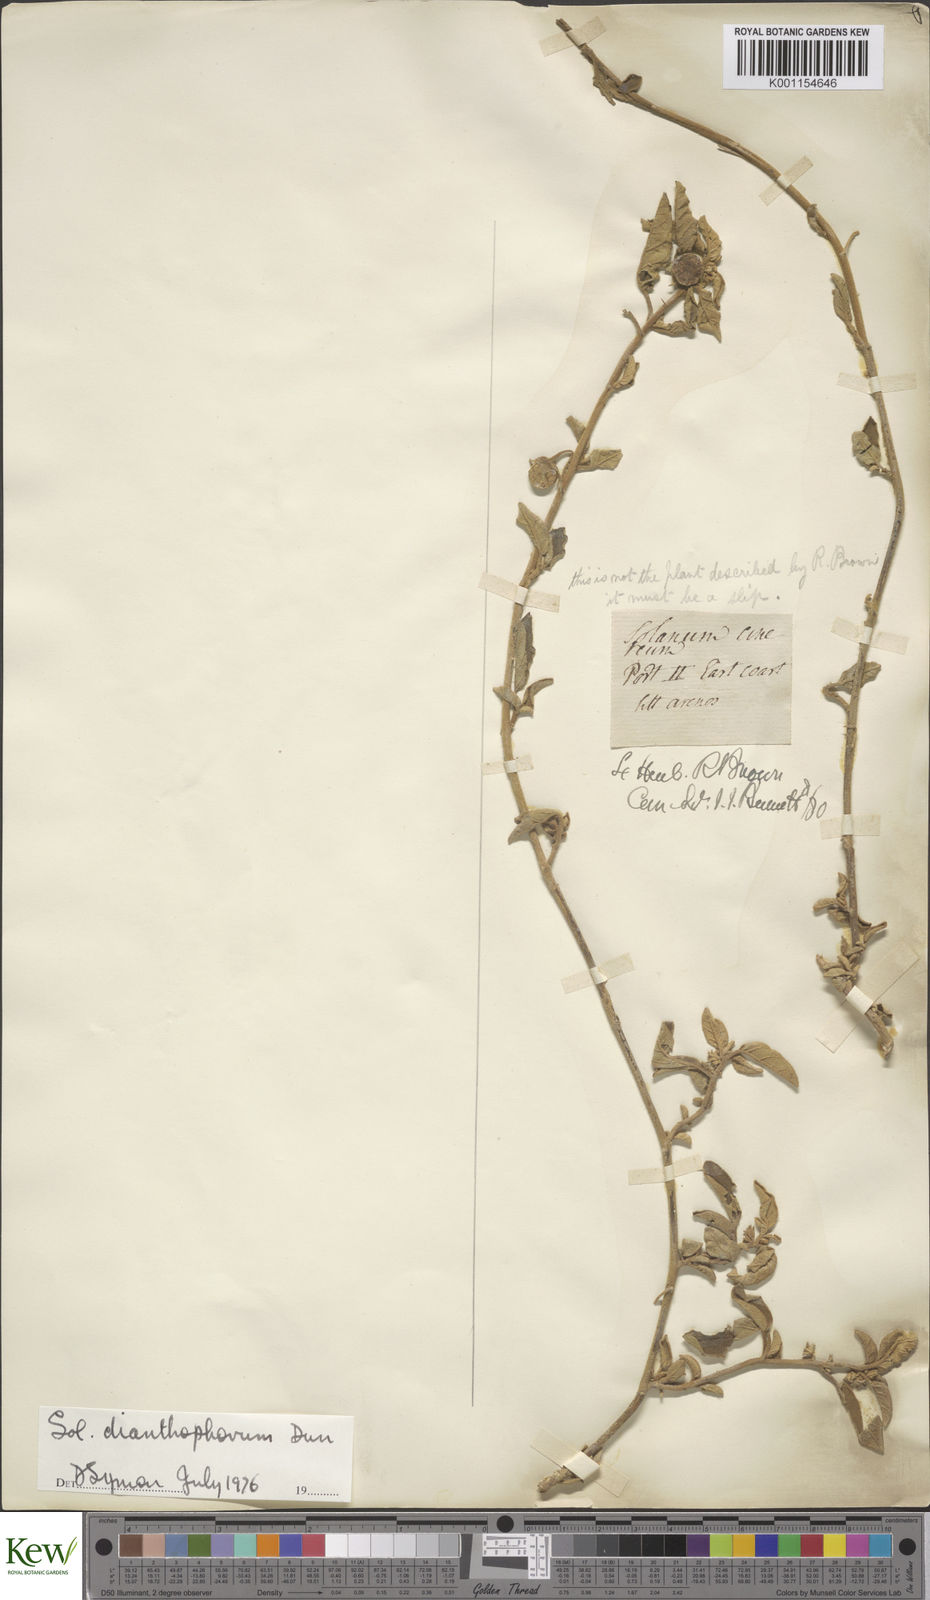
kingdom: Plantae
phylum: Tracheophyta
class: Magnoliopsida
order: Solanales
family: Solanaceae
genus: Solanum
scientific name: Solanum dianthophorum
